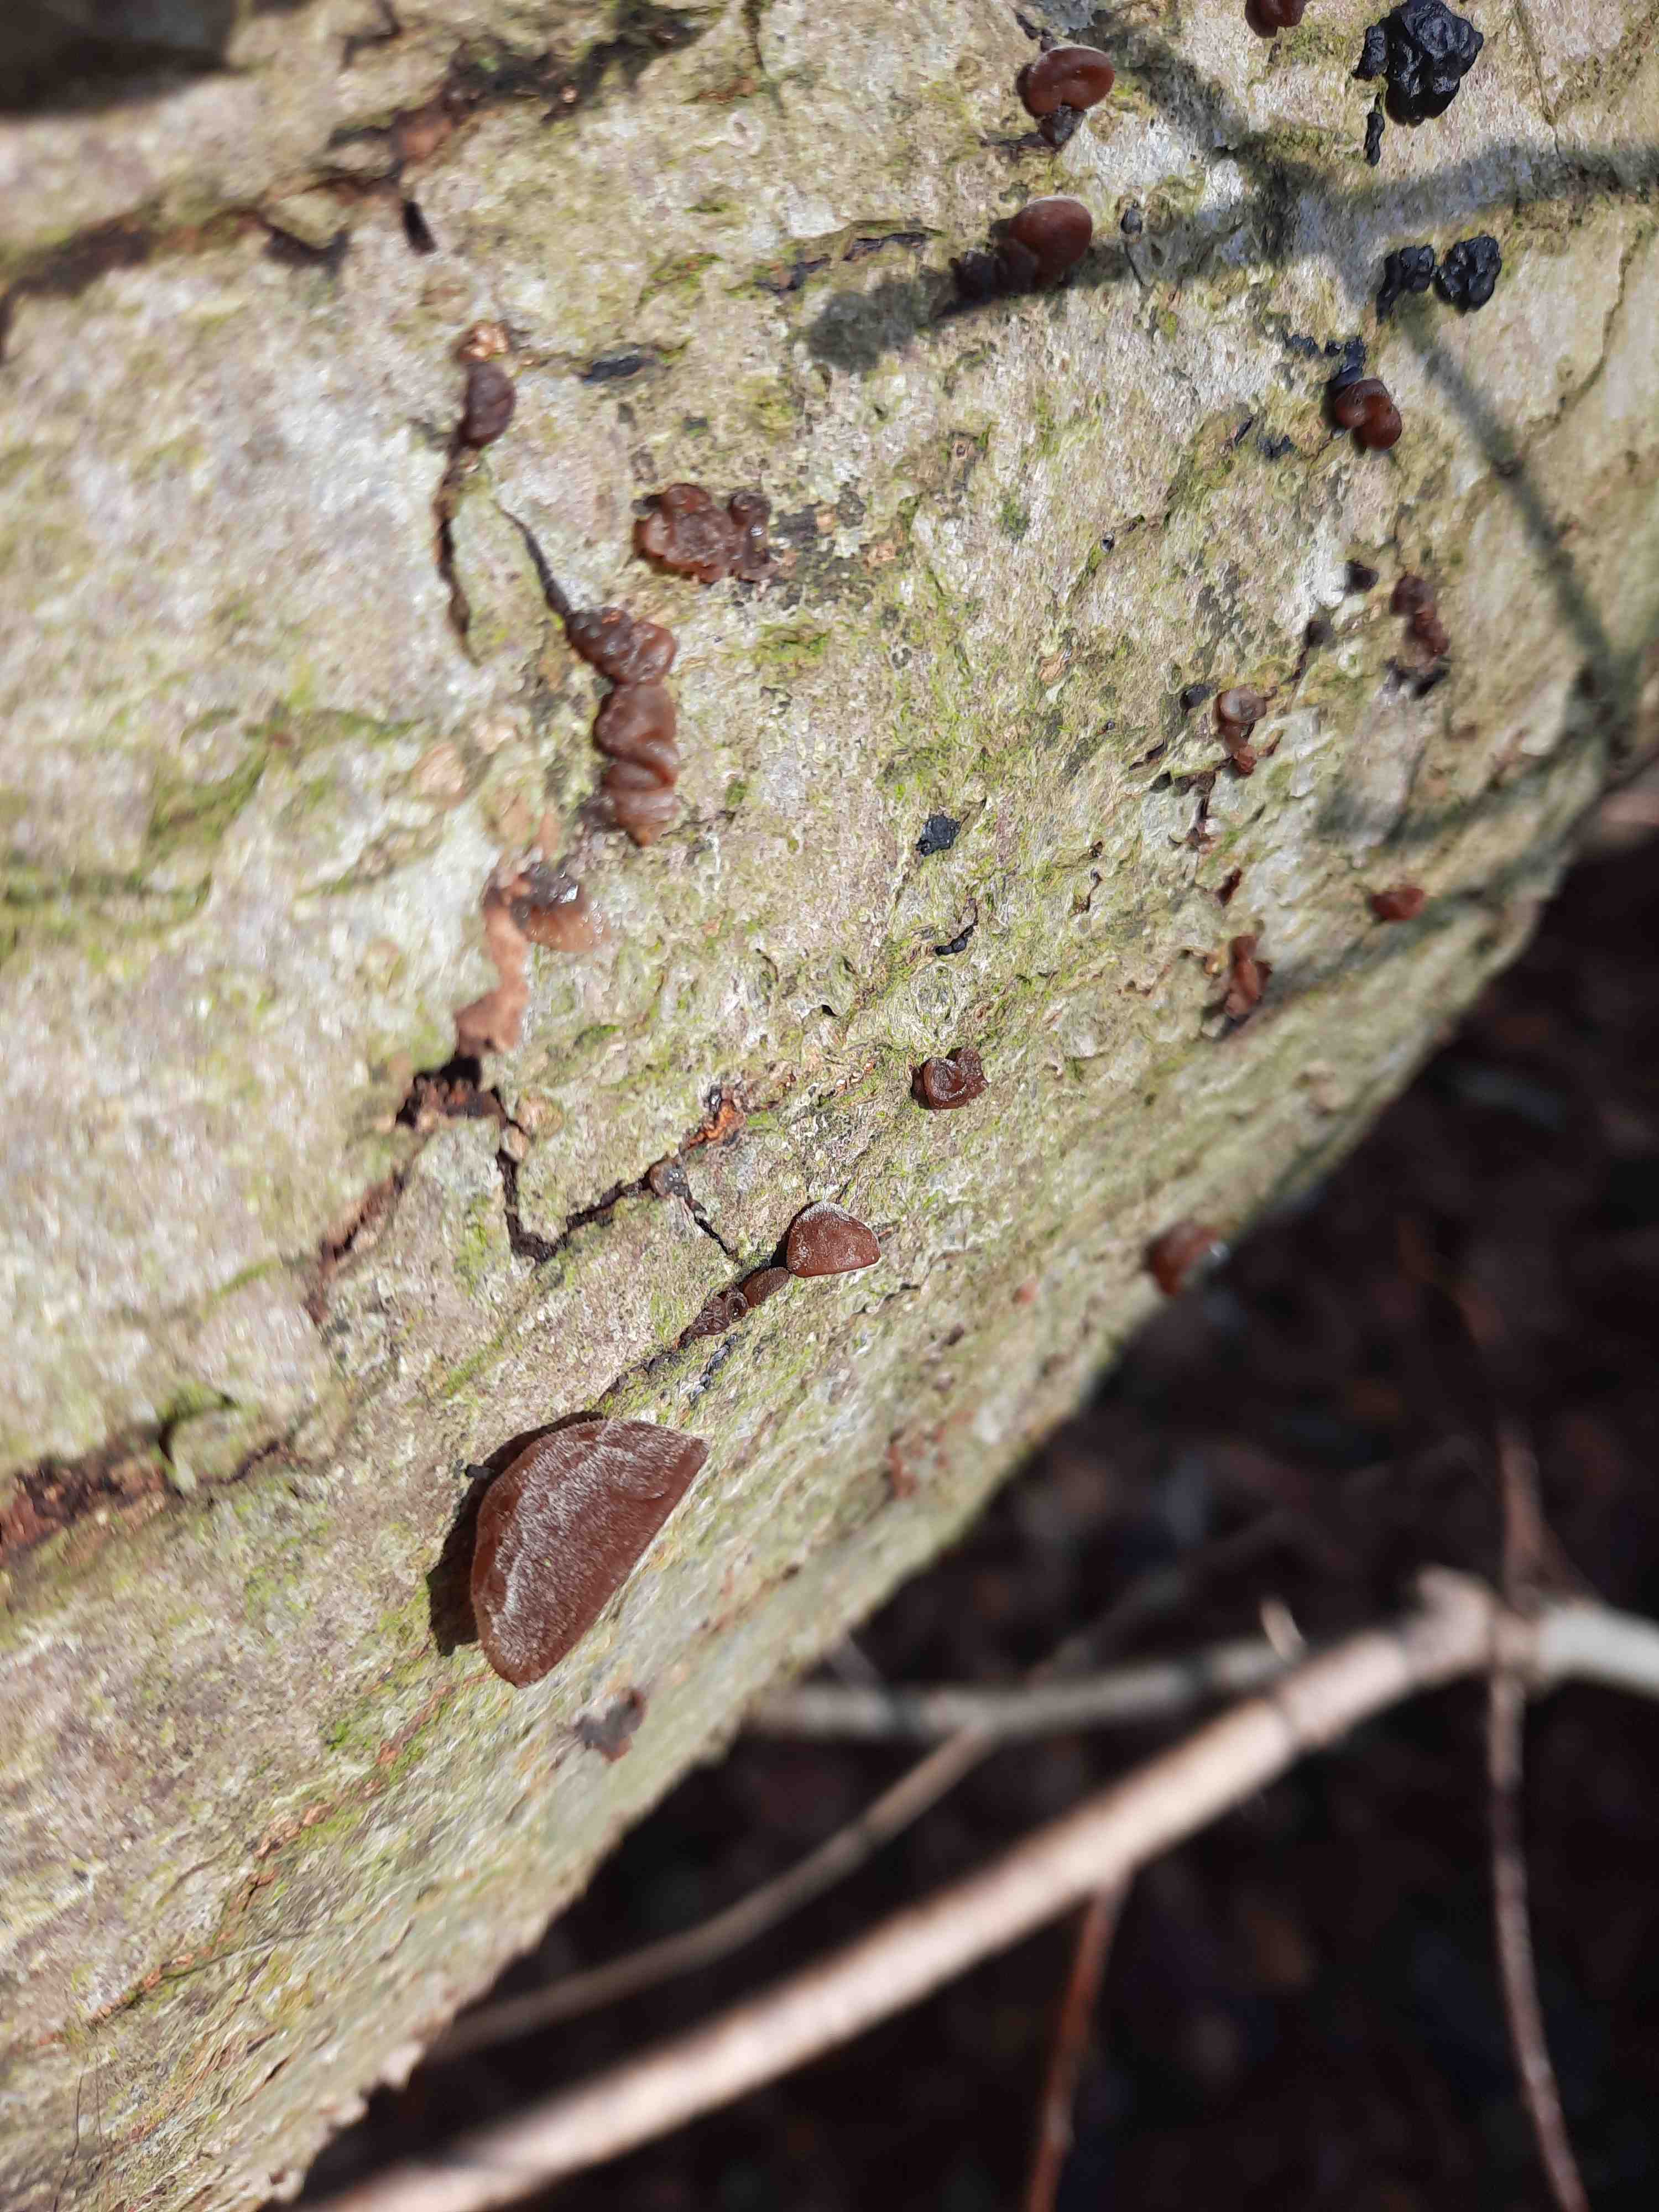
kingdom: Fungi
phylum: Basidiomycota
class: Agaricomycetes
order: Auriculariales
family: Auriculariaceae
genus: Auricularia
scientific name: Auricularia auricula-judae
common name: almindelig judasøre
